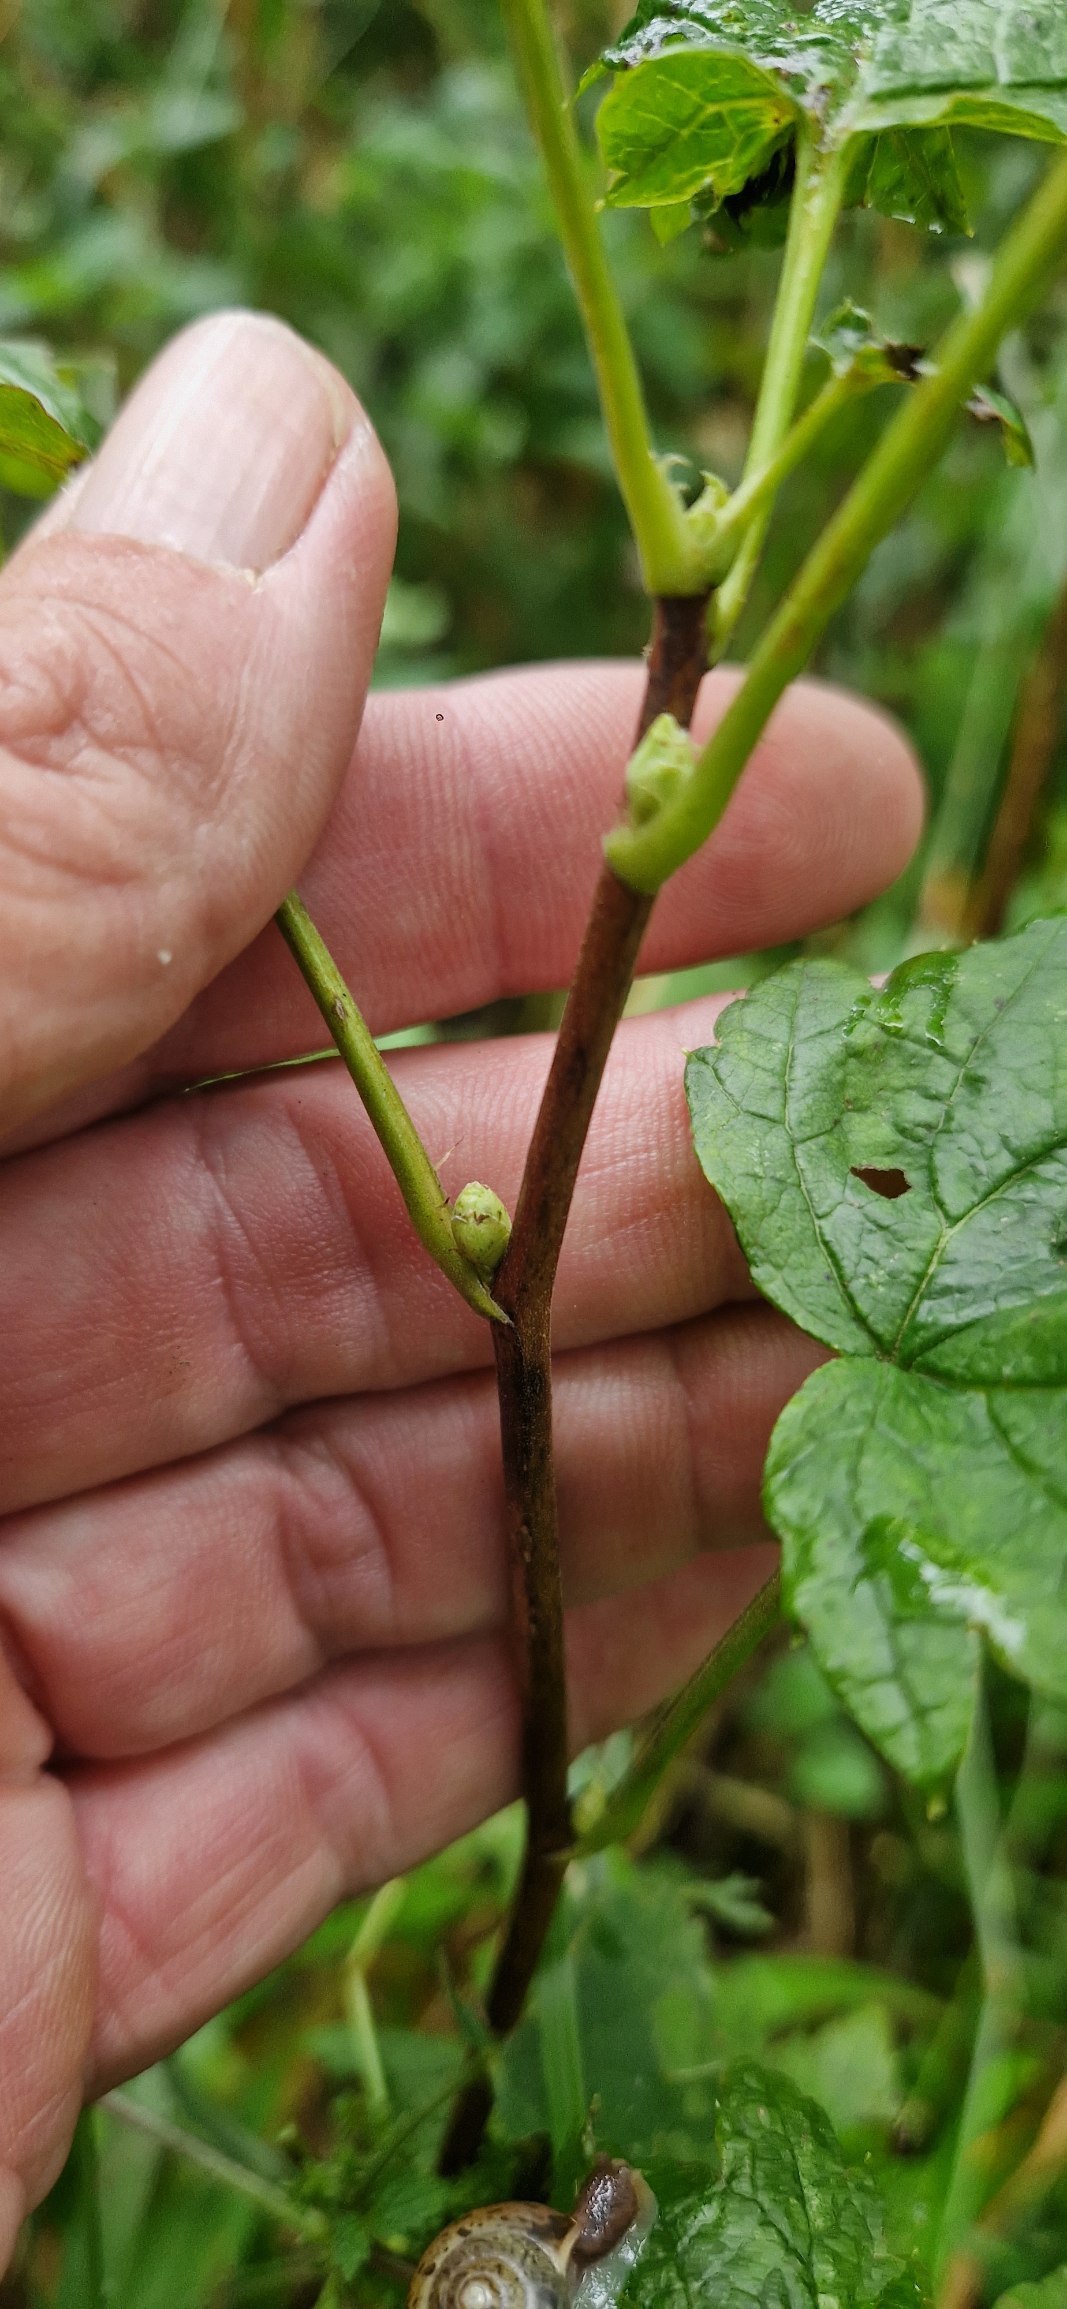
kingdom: Plantae
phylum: Tracheophyta
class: Magnoliopsida
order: Saxifragales
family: Grossulariaceae
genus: Ribes
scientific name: Ribes nigrum
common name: Solbær
